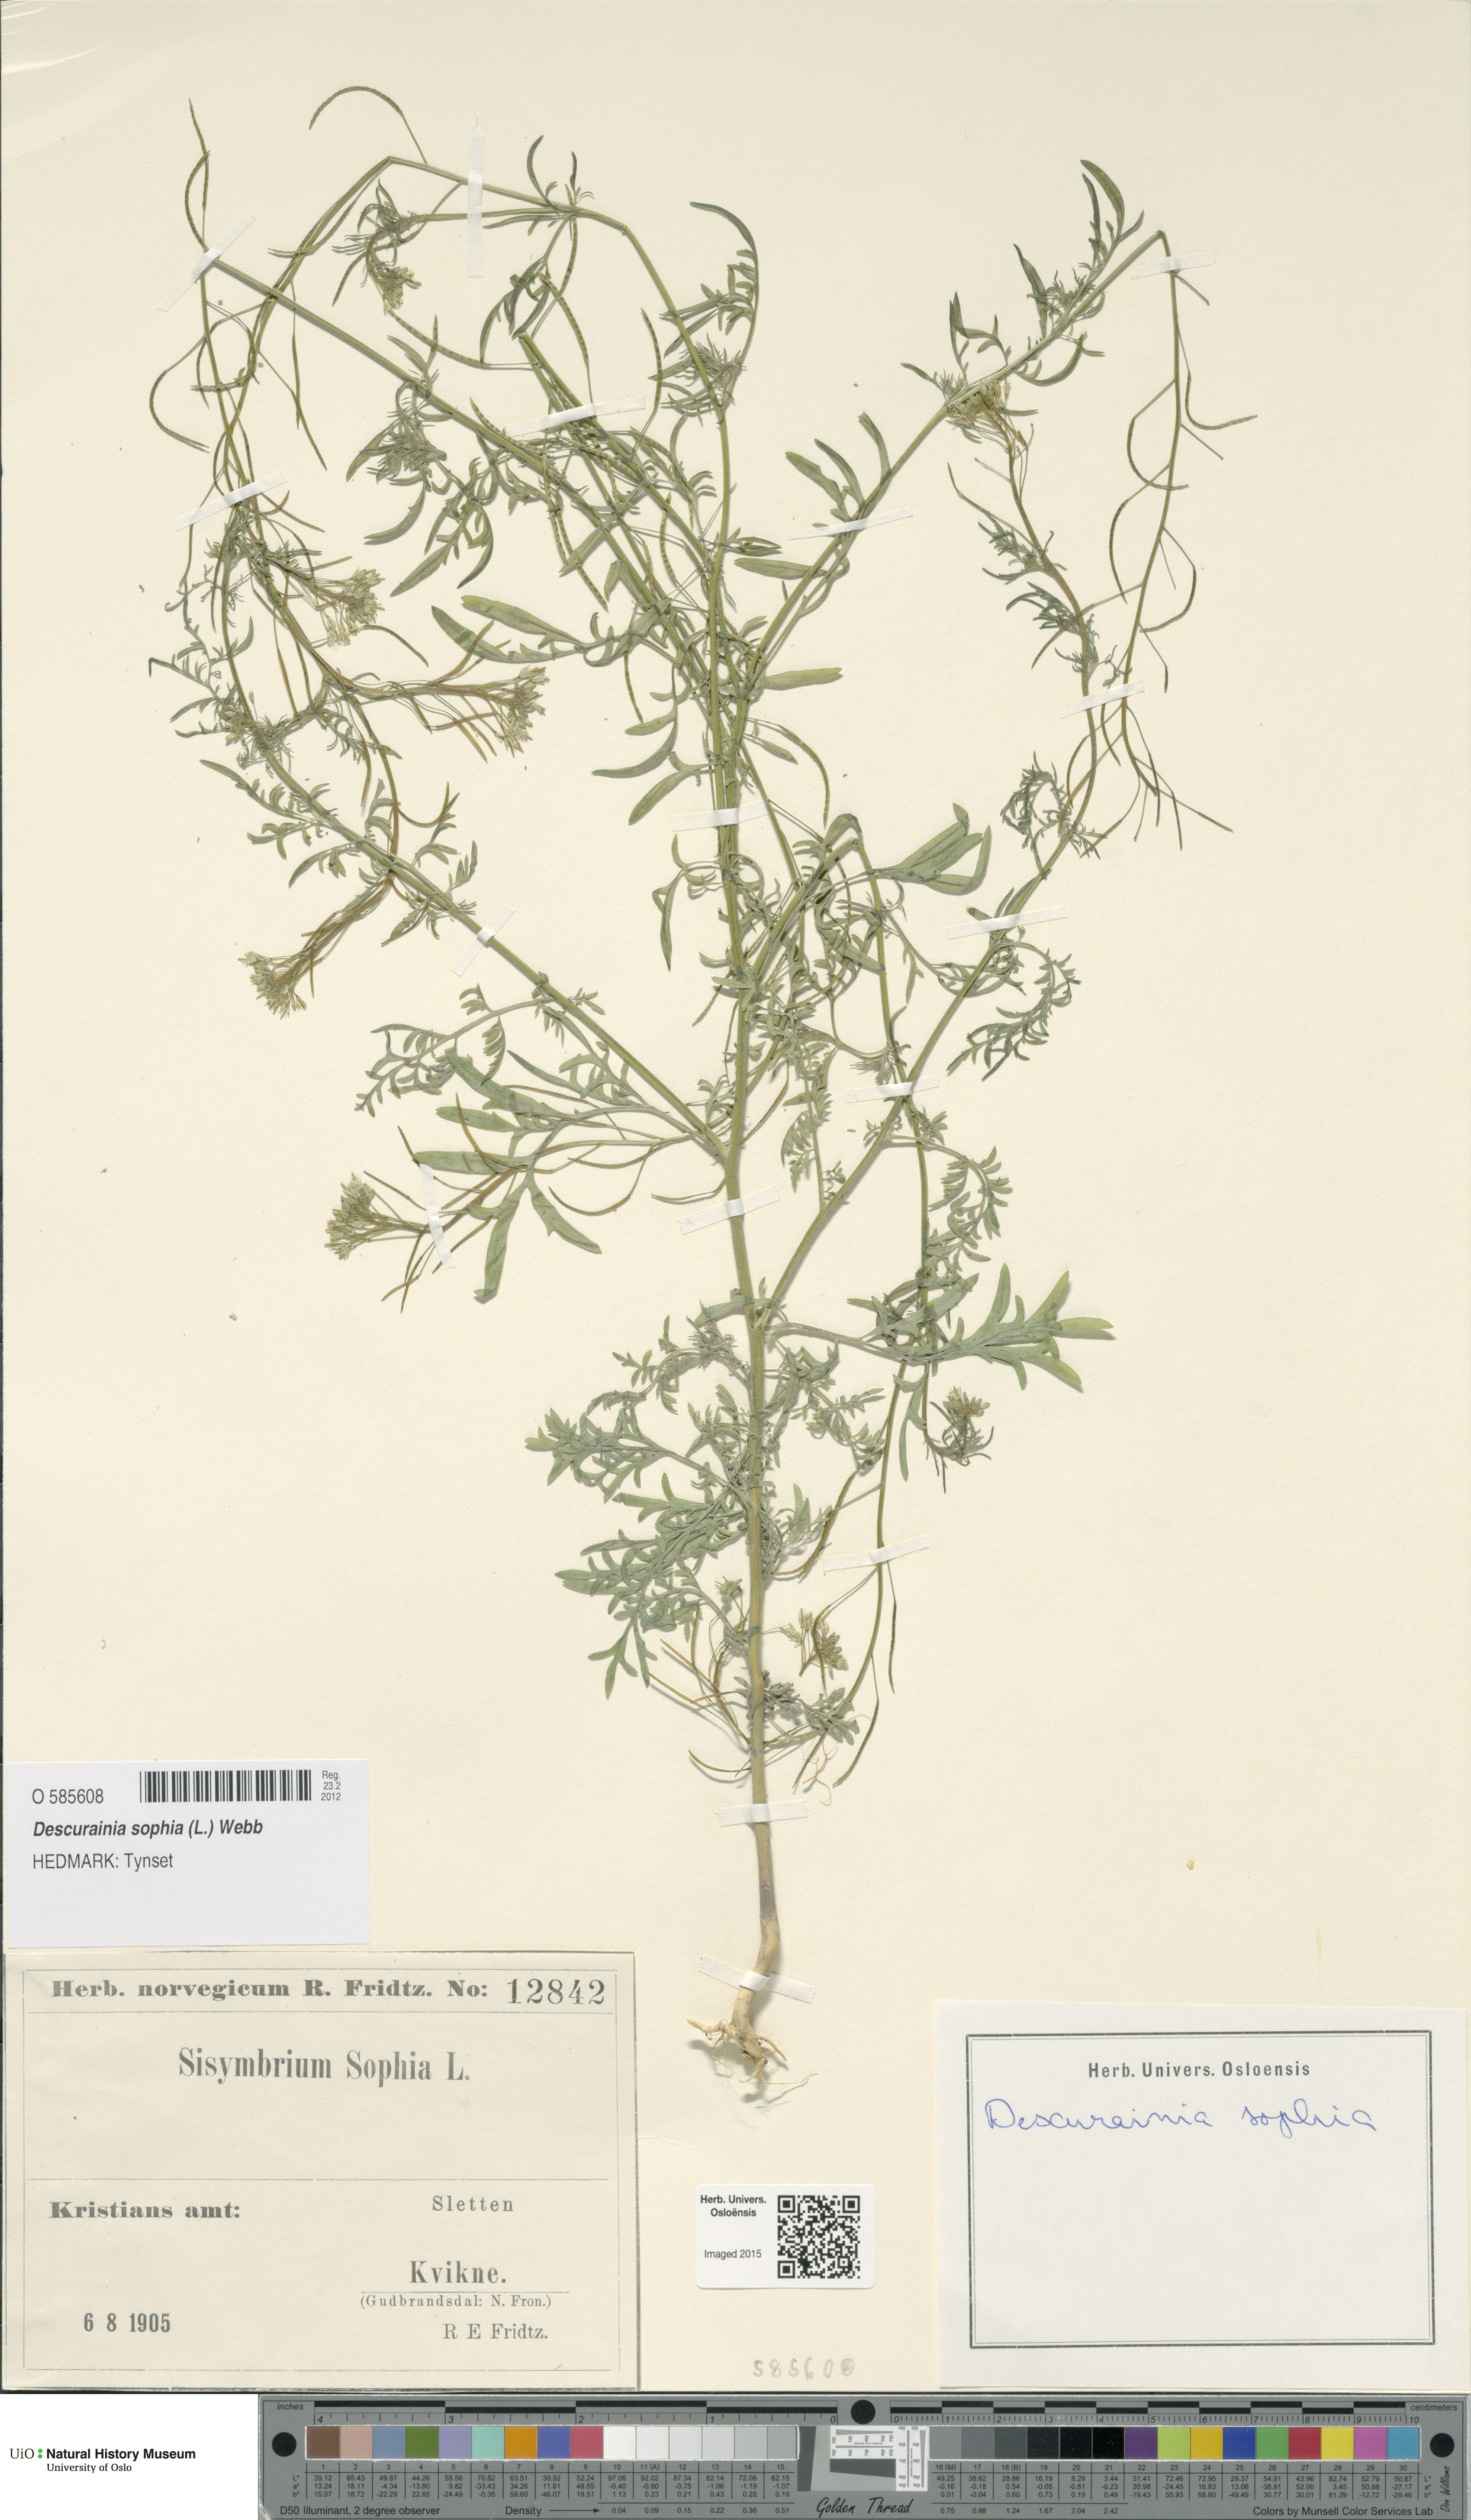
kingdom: Plantae
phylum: Tracheophyta
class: Magnoliopsida
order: Brassicales
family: Brassicaceae
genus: Descurainia
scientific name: Descurainia sophia
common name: Flixweed
